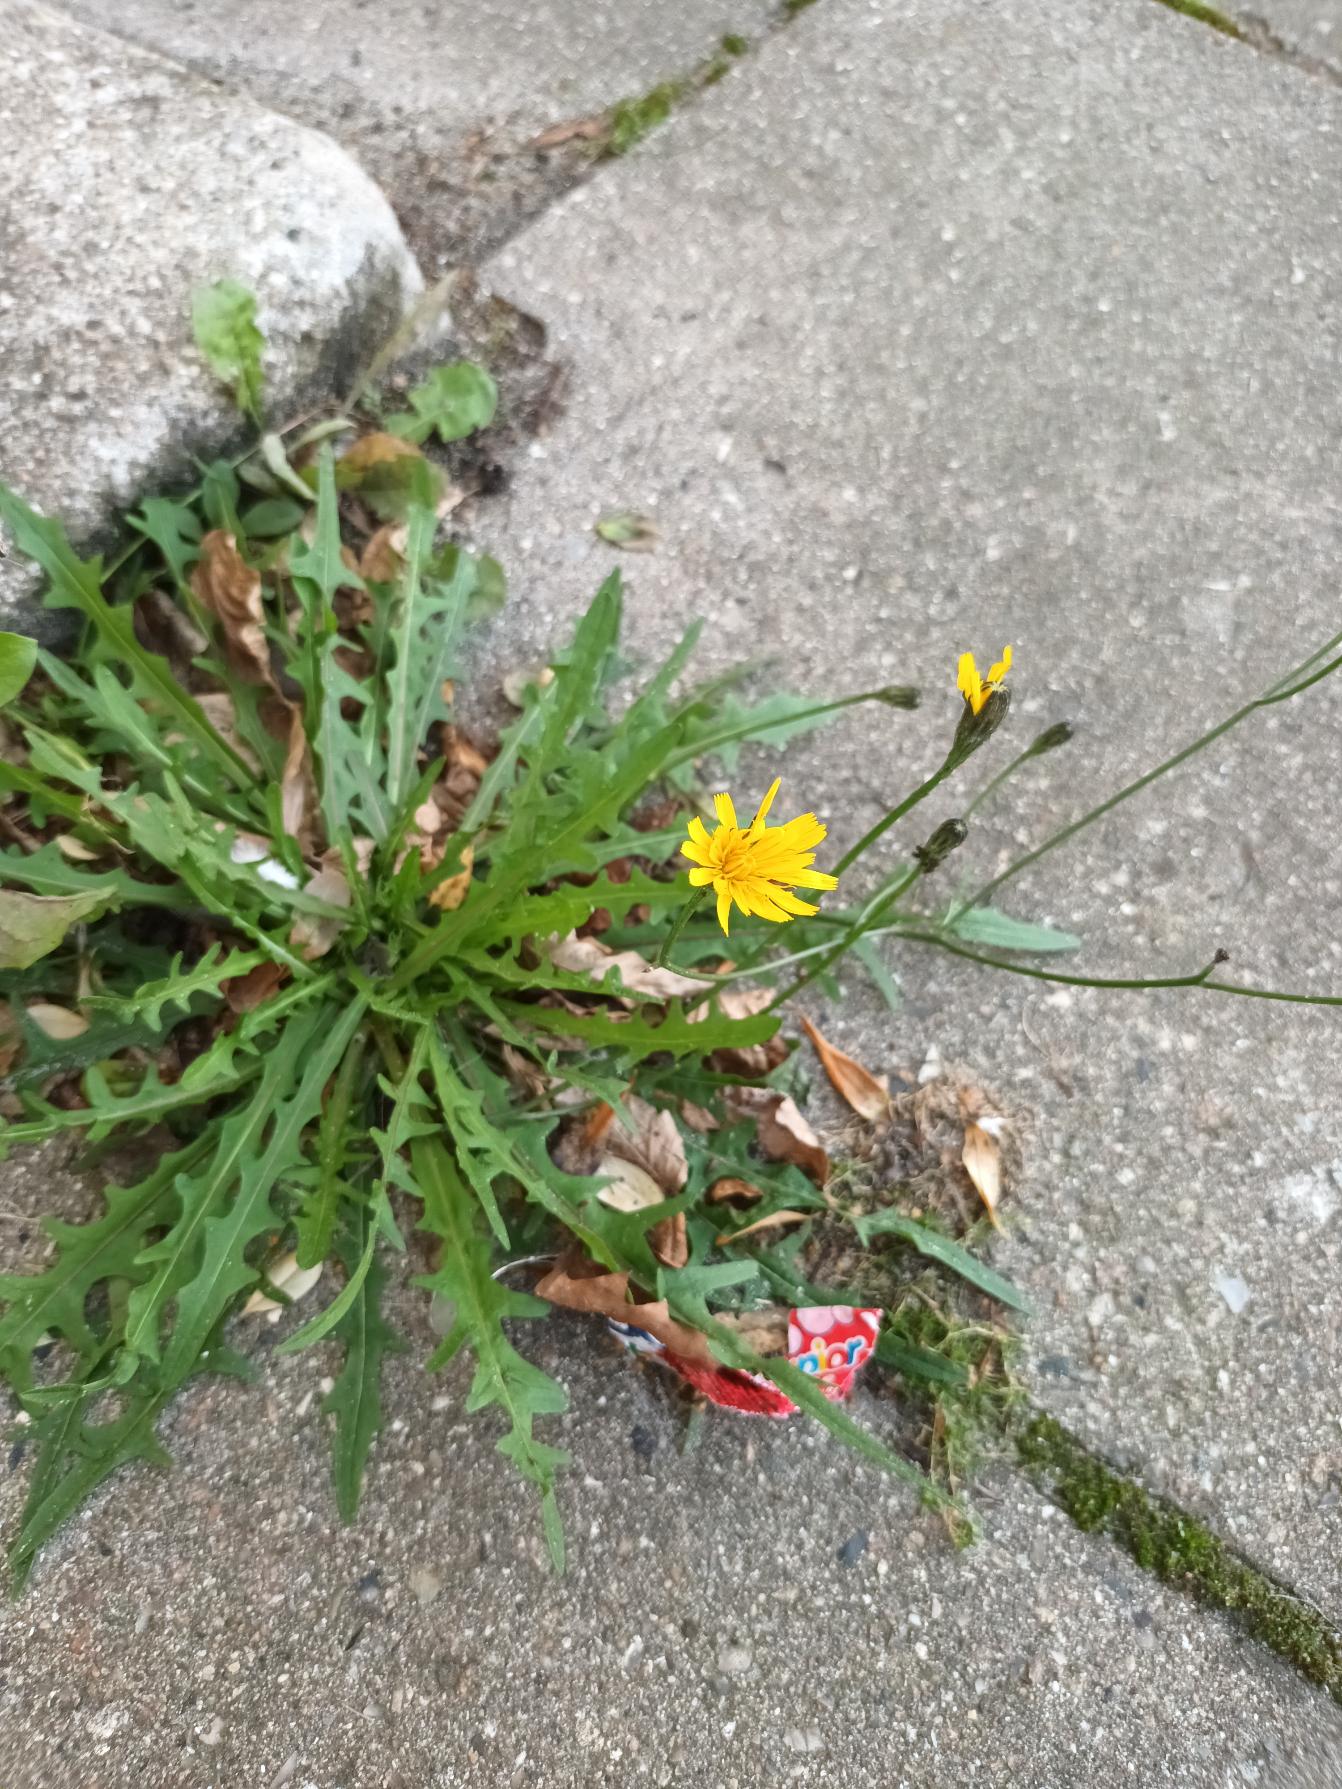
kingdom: Plantae
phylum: Tracheophyta
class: Magnoliopsida
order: Asterales
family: Asteraceae
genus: Scorzoneroides
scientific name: Scorzoneroides autumnalis
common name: Høst-borst
